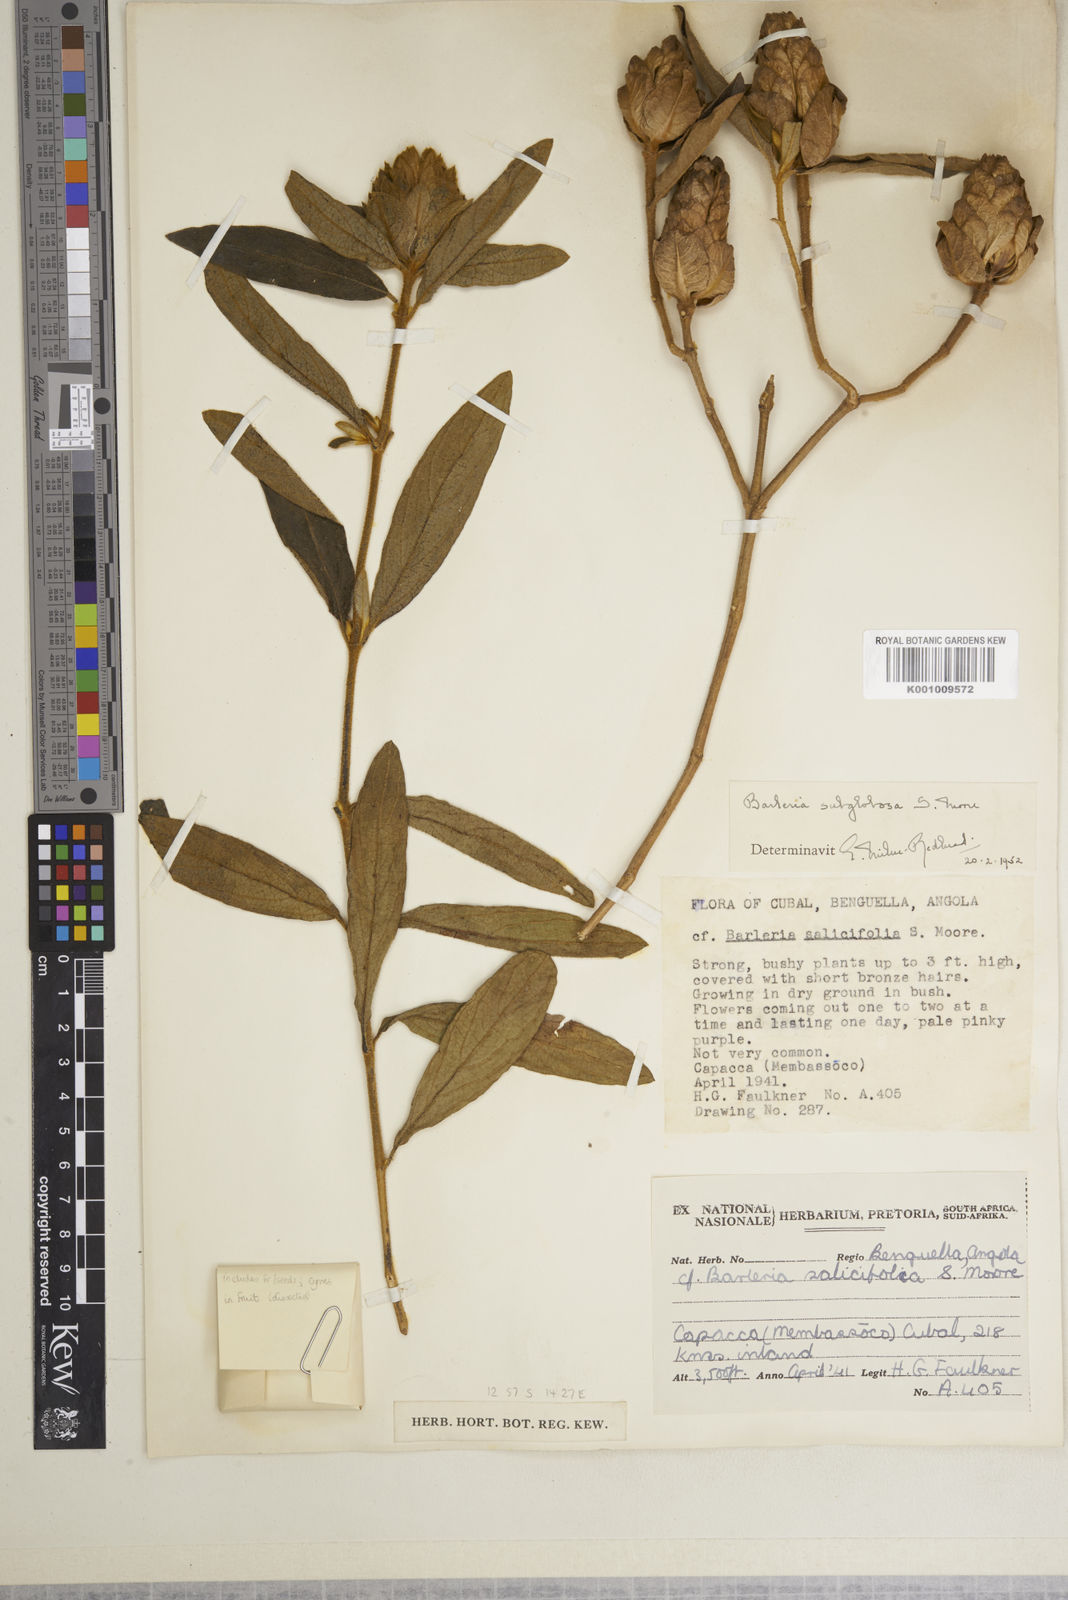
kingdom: Plantae
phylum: Tracheophyta
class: Magnoliopsida
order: Lamiales
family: Acanthaceae
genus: Barleria
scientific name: Barleria subglobosa
